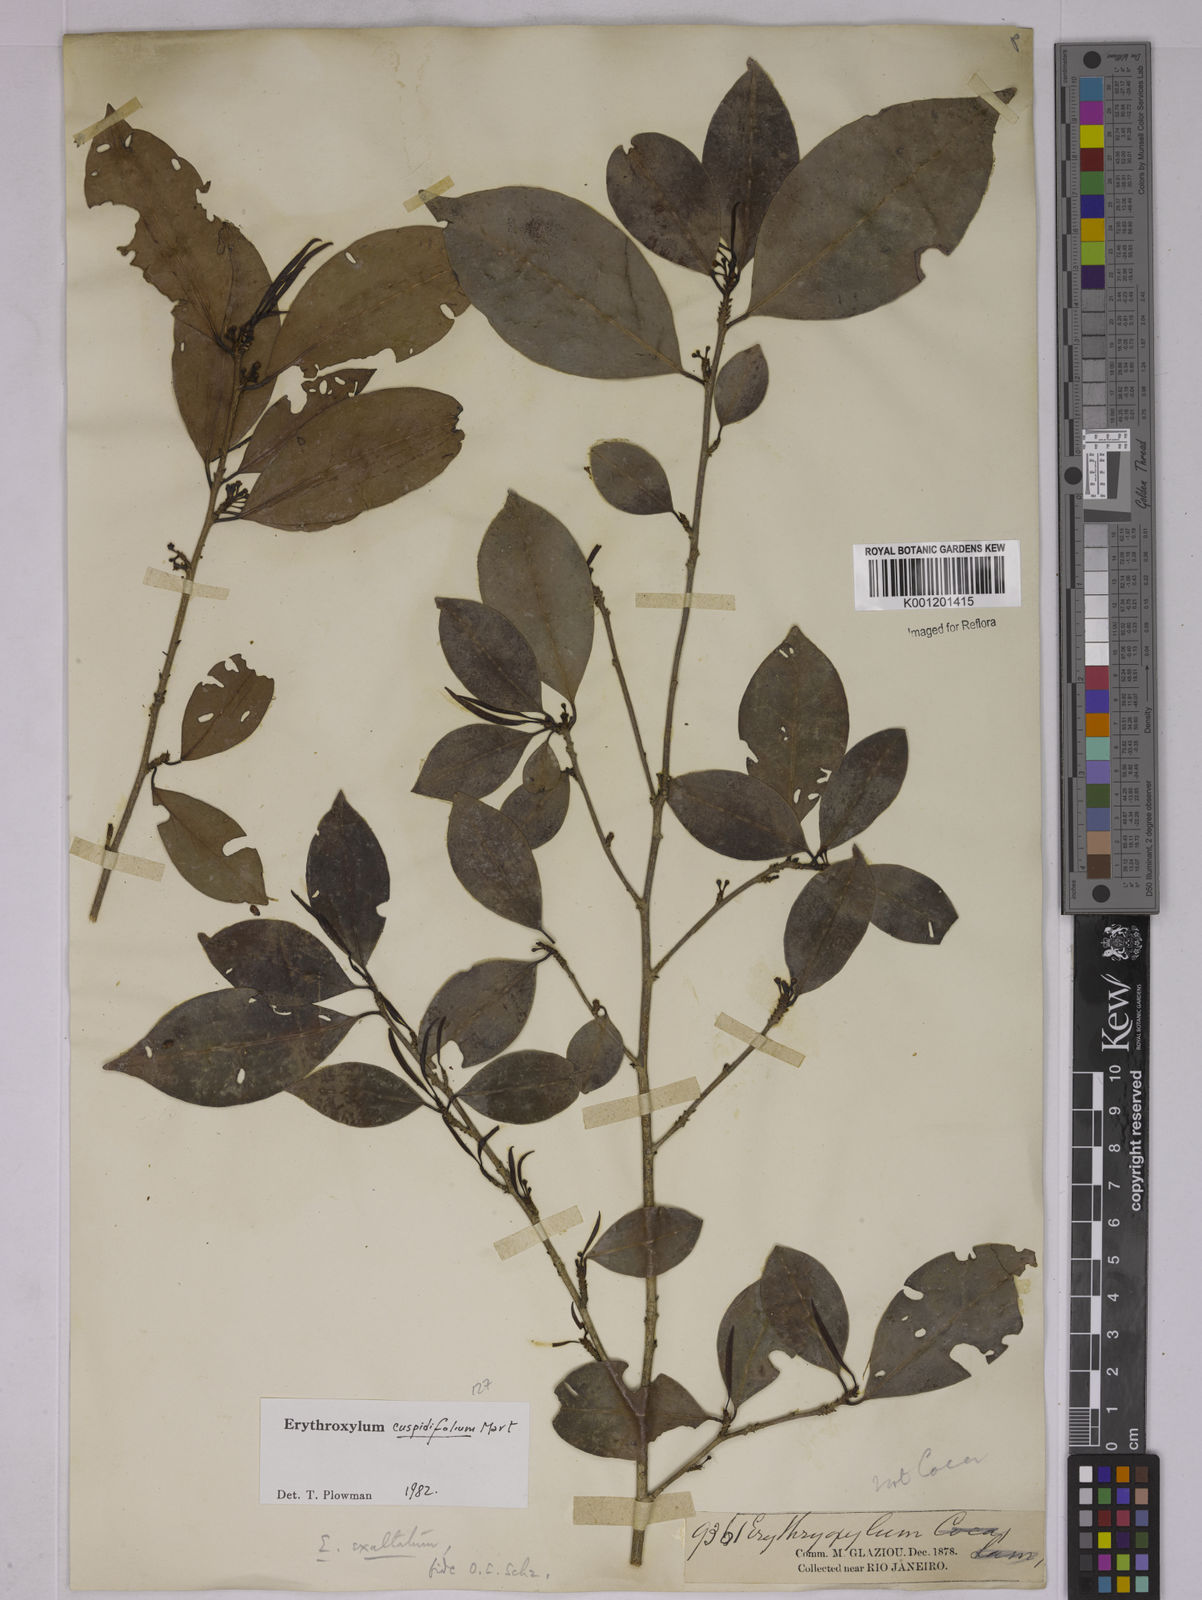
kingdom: Plantae
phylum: Tracheophyta
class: Magnoliopsida
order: Malpighiales
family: Erythroxylaceae
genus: Erythroxylum
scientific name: Erythroxylum cuspidifolium
